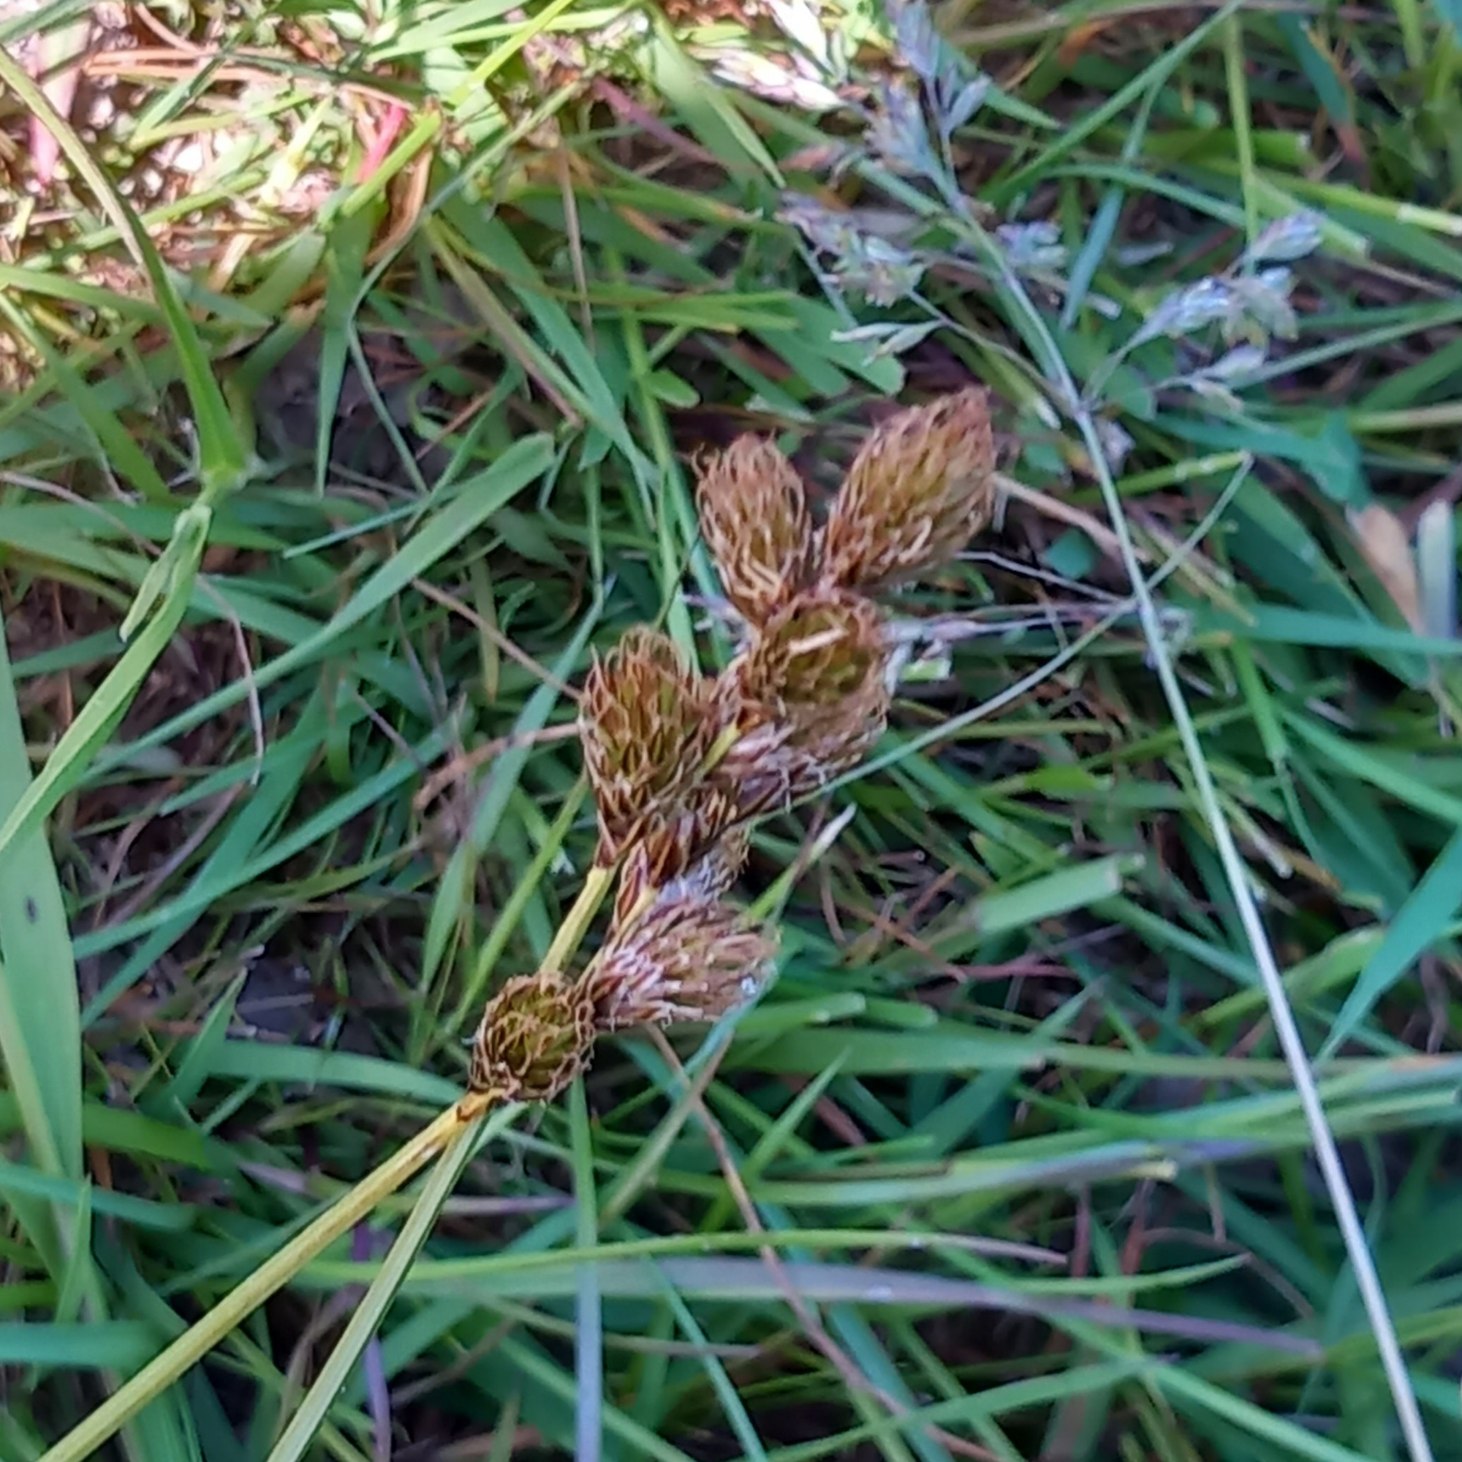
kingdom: Plantae
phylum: Tracheophyta
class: Liliopsida
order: Poales
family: Cyperaceae
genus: Carex
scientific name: Carex leporina
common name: Hare-star
